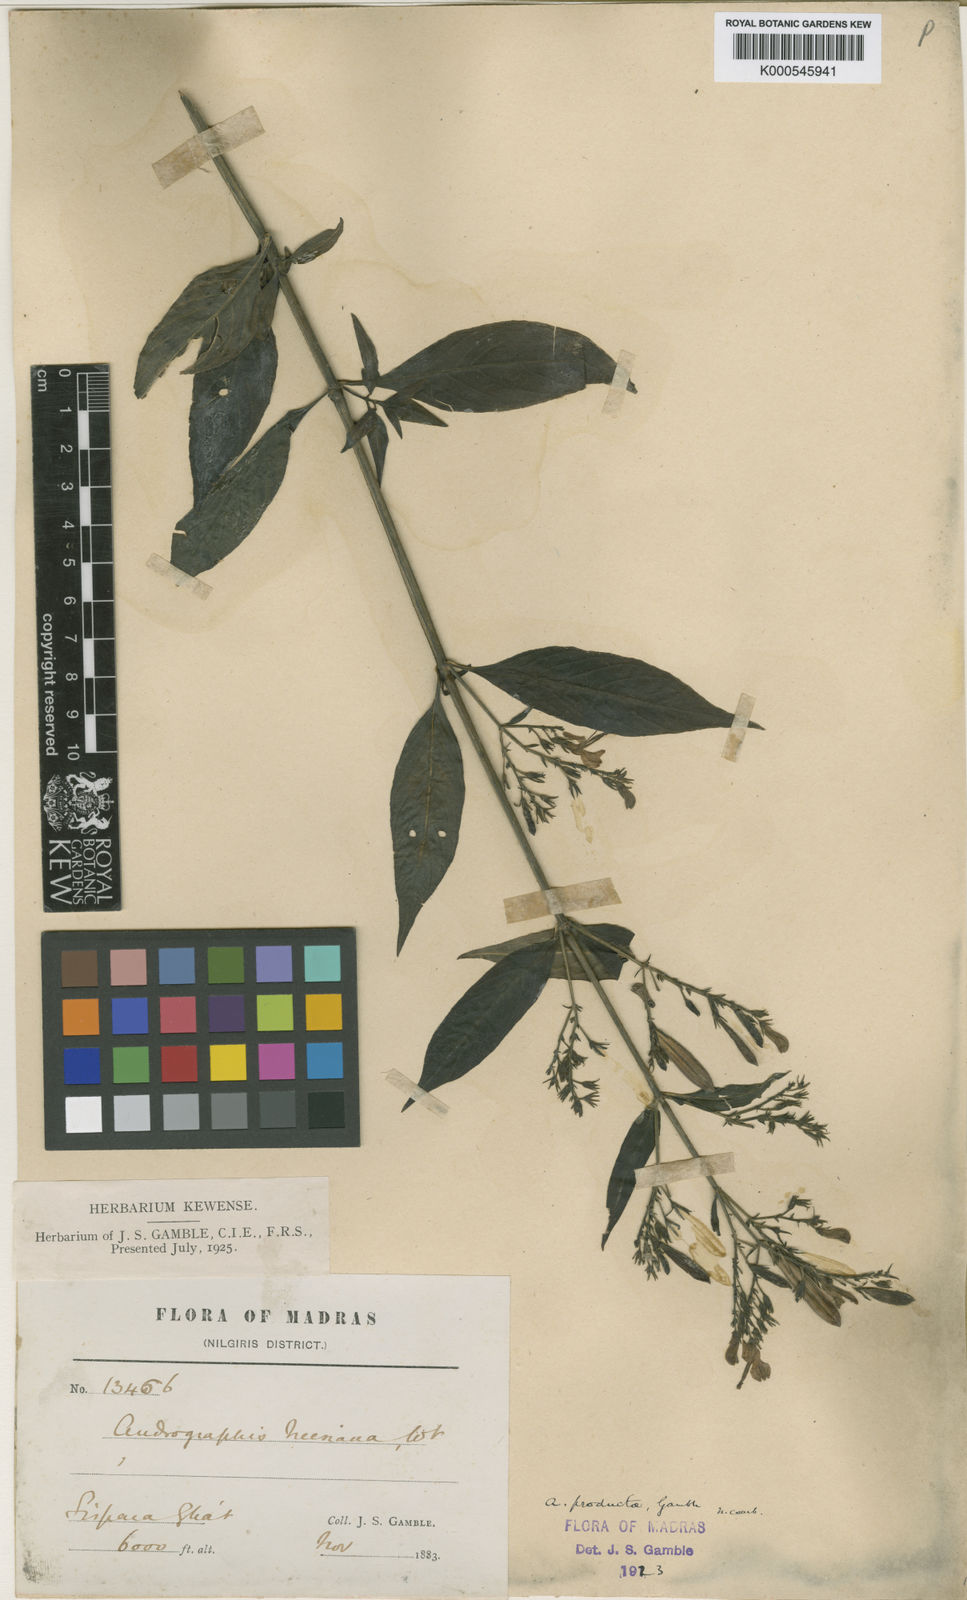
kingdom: Plantae
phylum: Tracheophyta
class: Magnoliopsida
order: Lamiales
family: Acanthaceae
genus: Andrographis
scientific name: Andrographis producta
